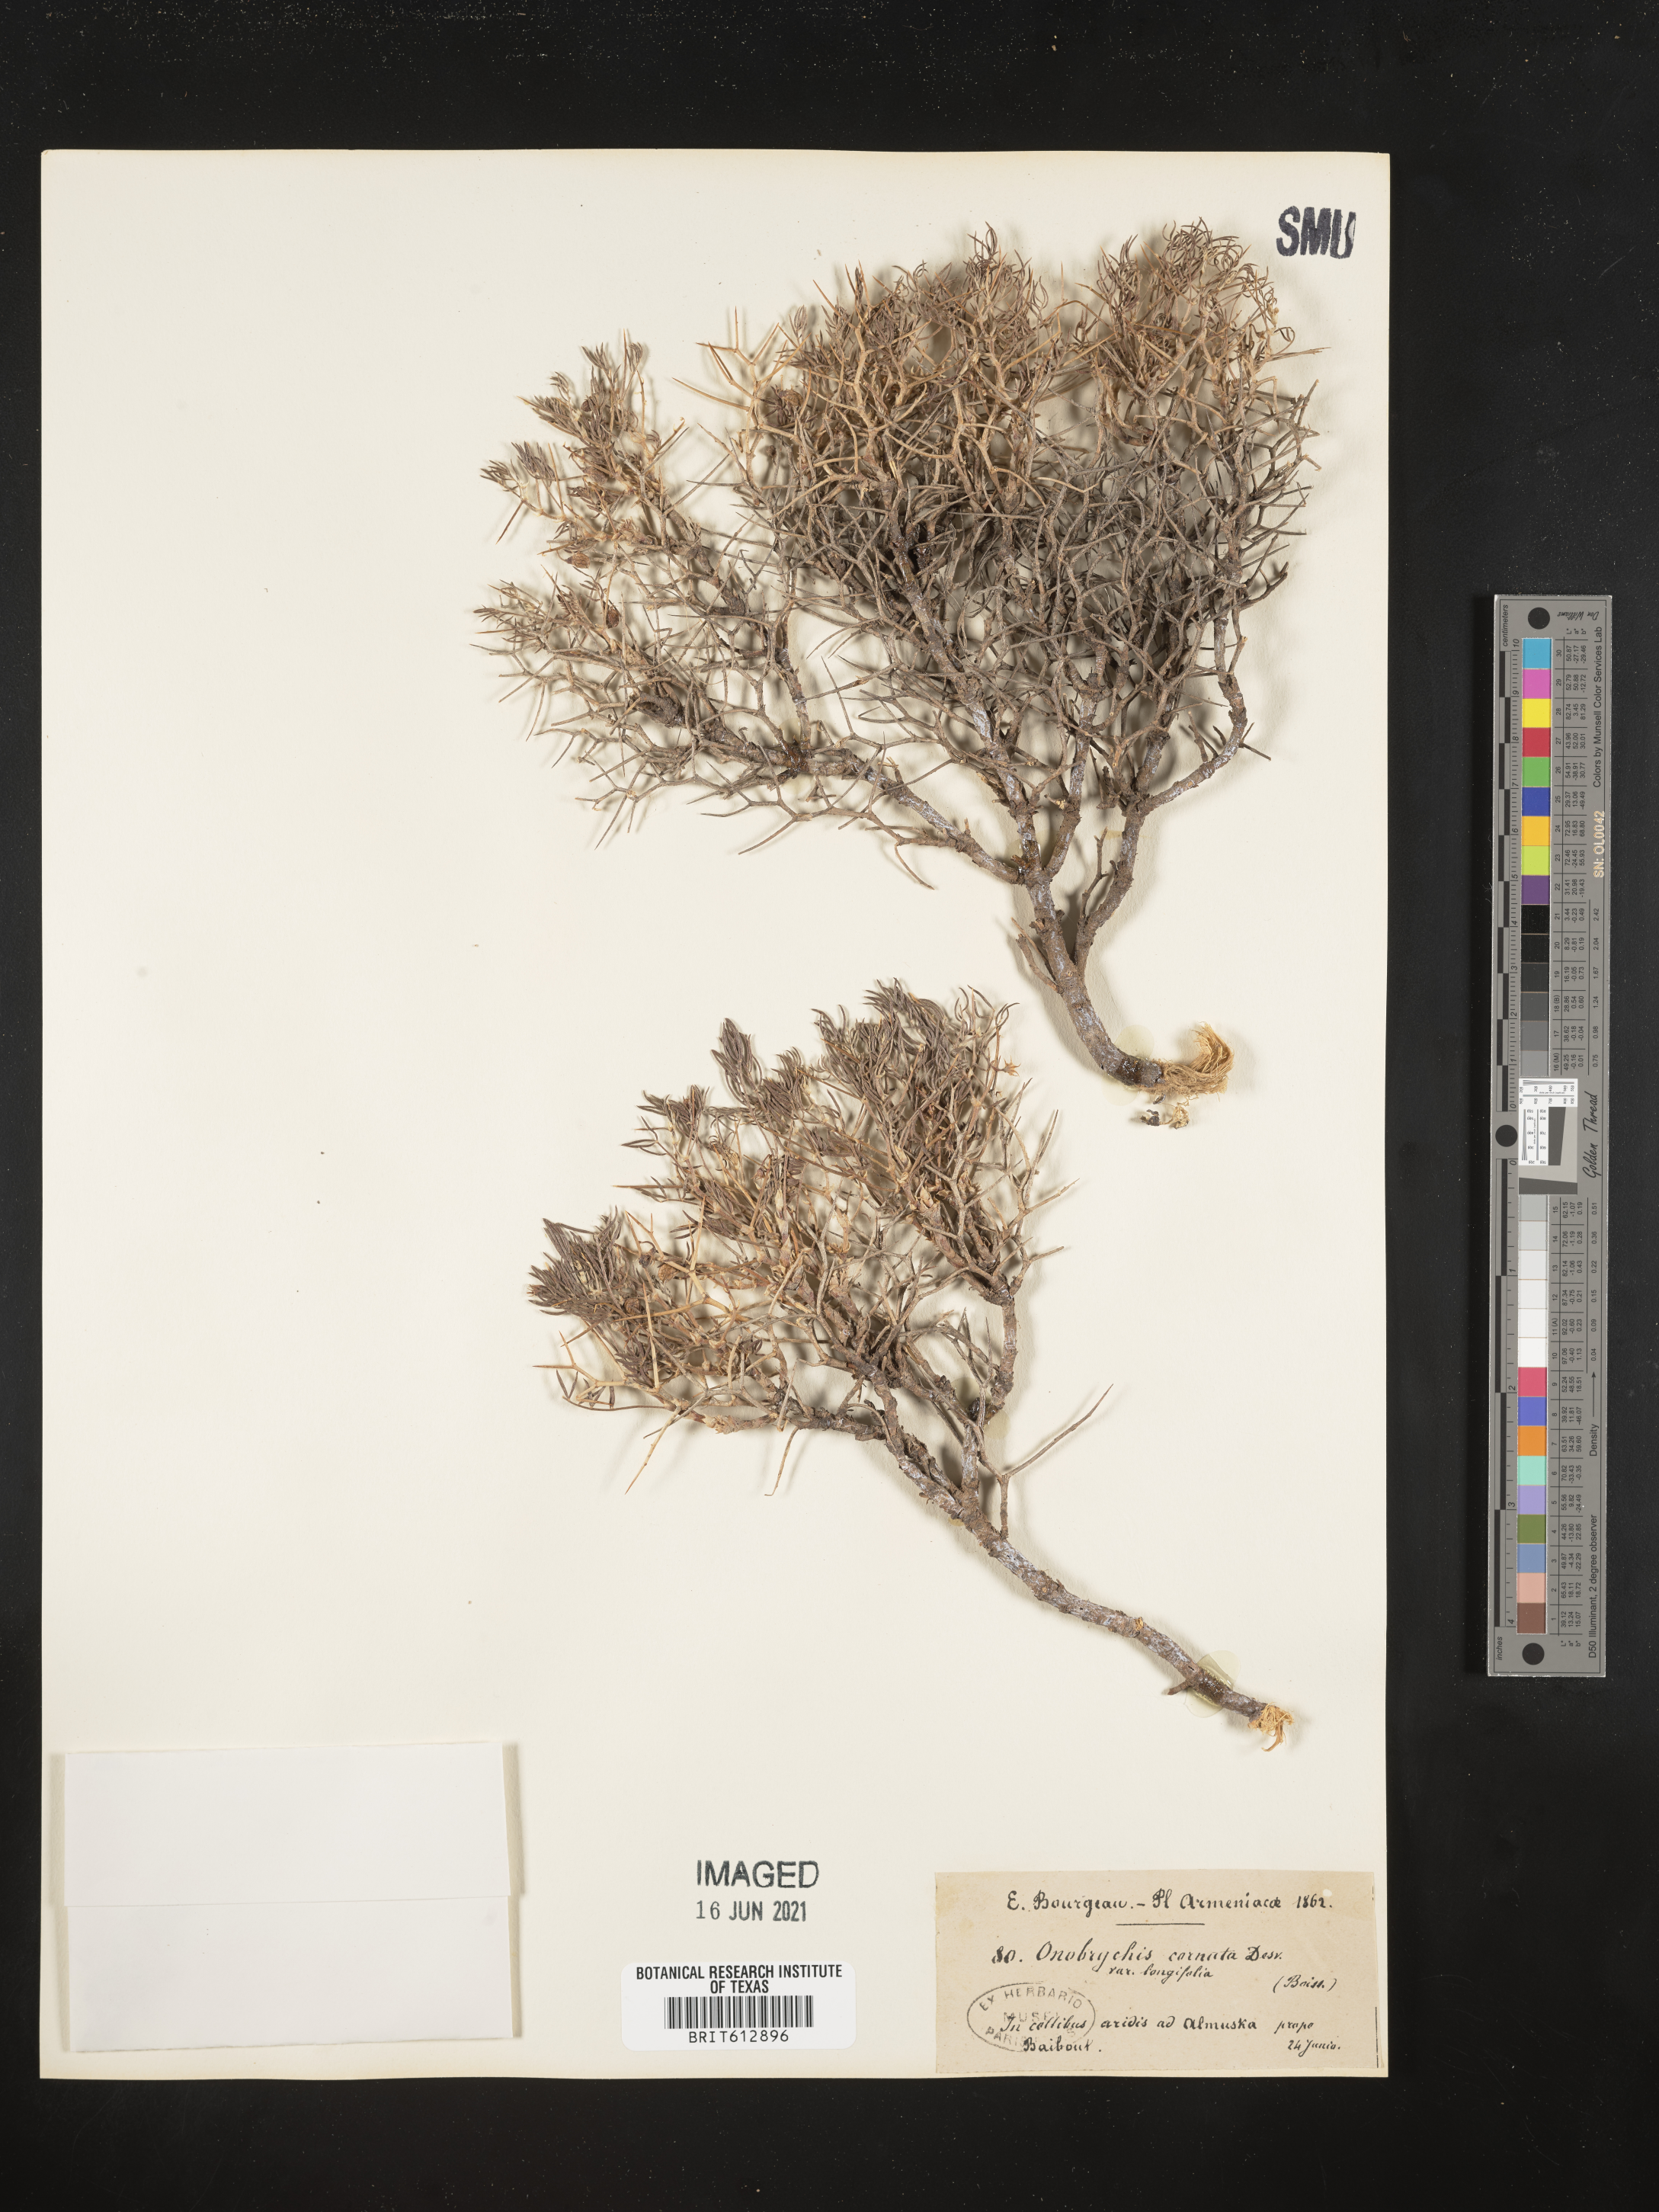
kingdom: Plantae
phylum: Tracheophyta
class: Magnoliopsida
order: Fabales
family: Fabaceae
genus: Onobrychis
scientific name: Onobrychis cornuta
